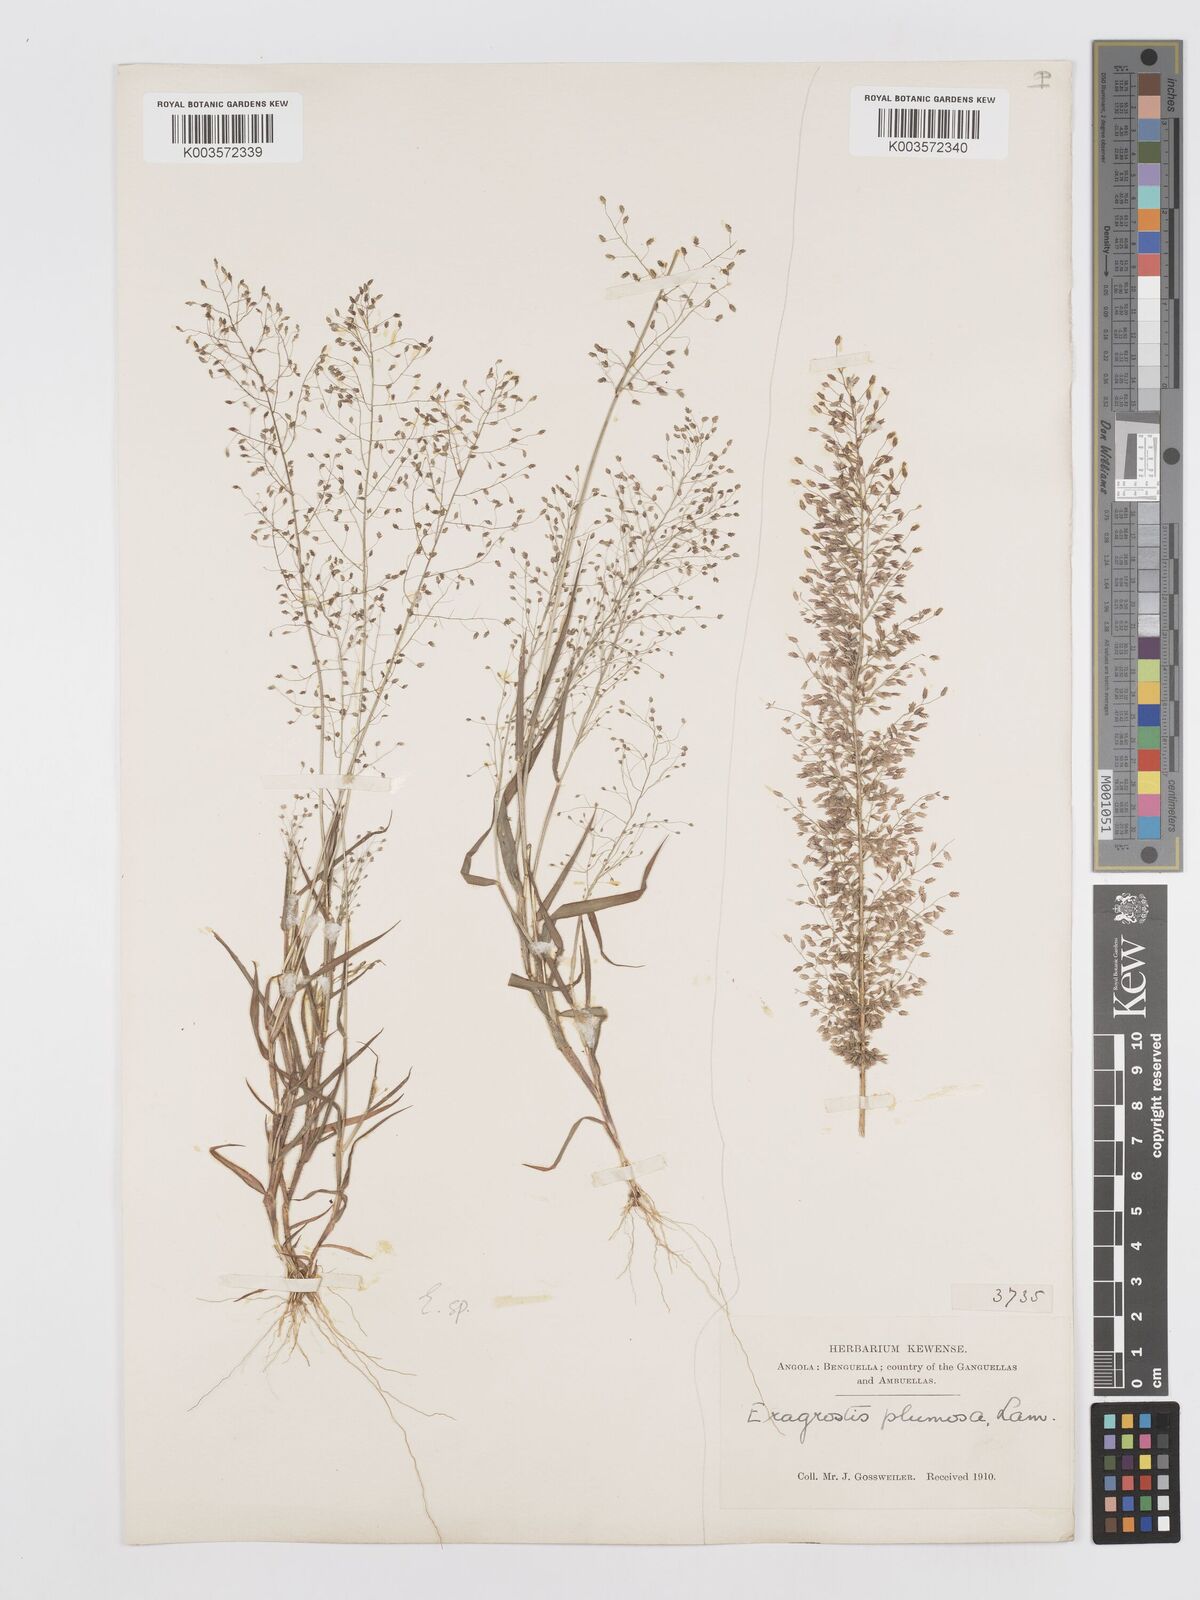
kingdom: Plantae
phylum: Tracheophyta
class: Liliopsida
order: Poales
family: Poaceae
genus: Eragrostis
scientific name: Eragrostis
